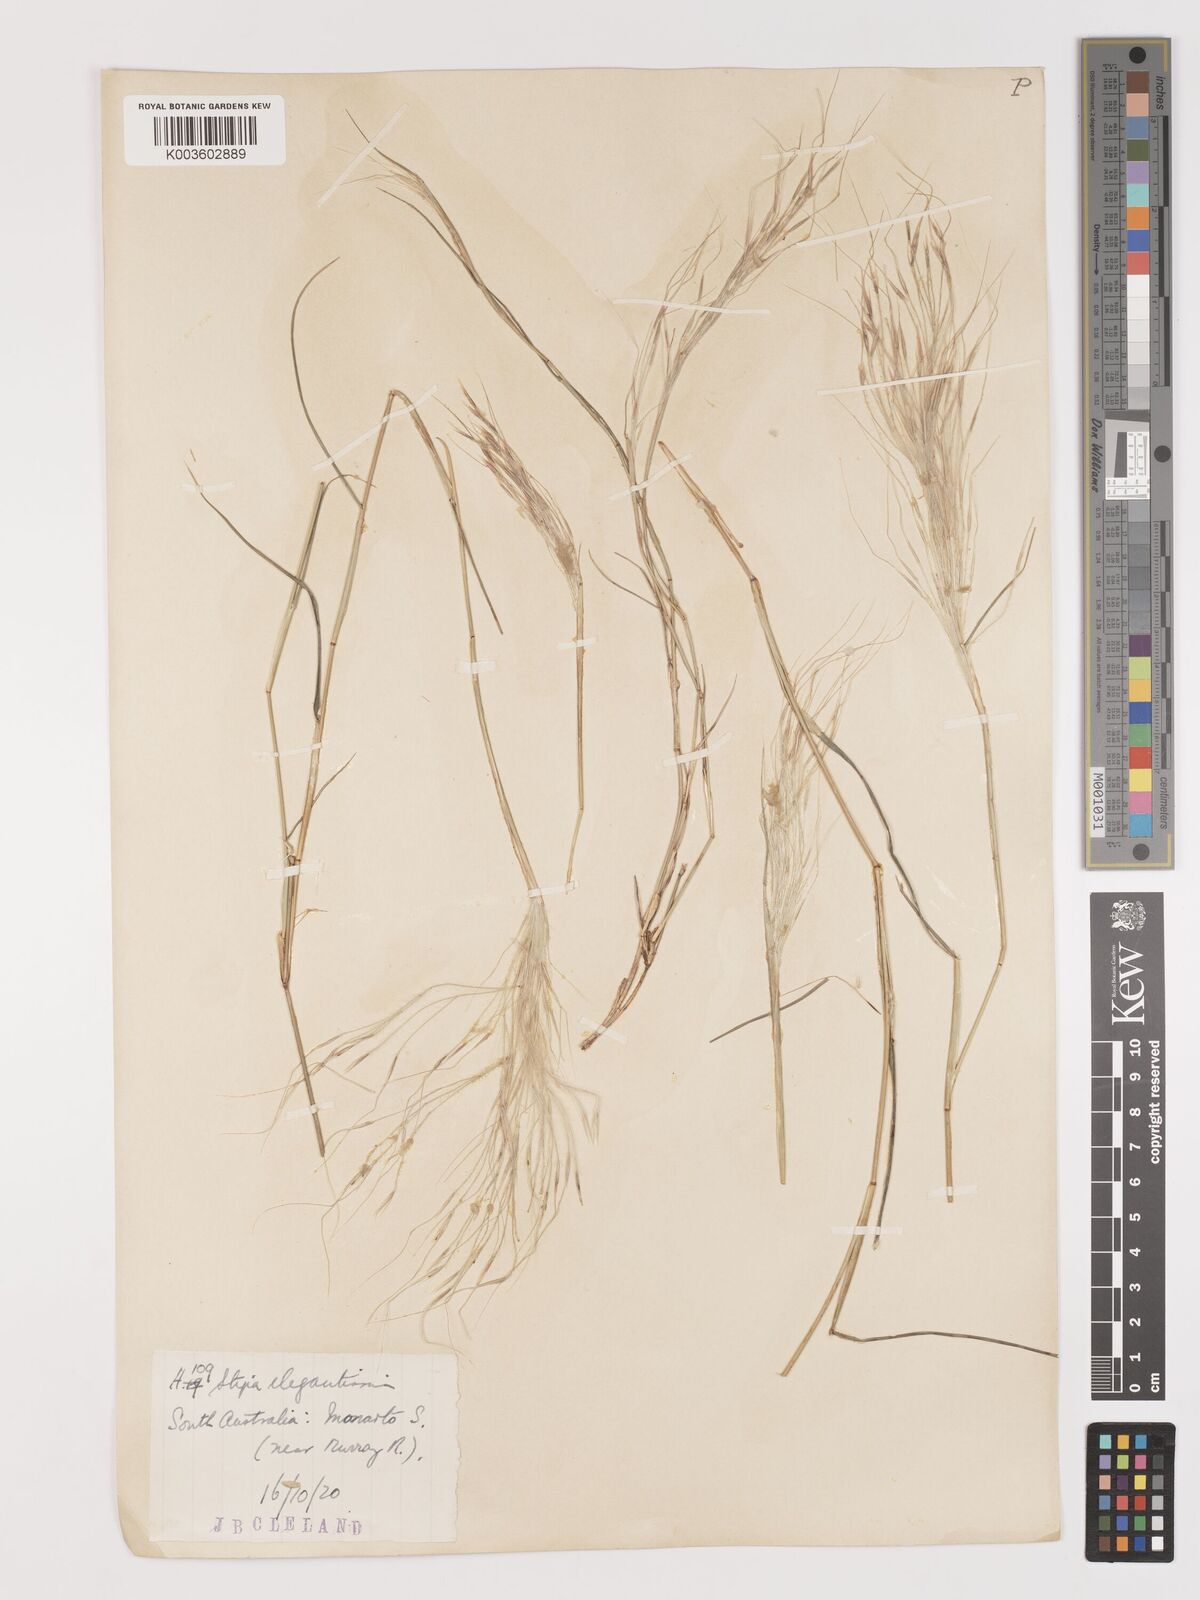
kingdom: Plantae
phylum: Tracheophyta
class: Liliopsida
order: Poales
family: Poaceae
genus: Austrostipa
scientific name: Austrostipa elegantissima
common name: Feather spear grass
